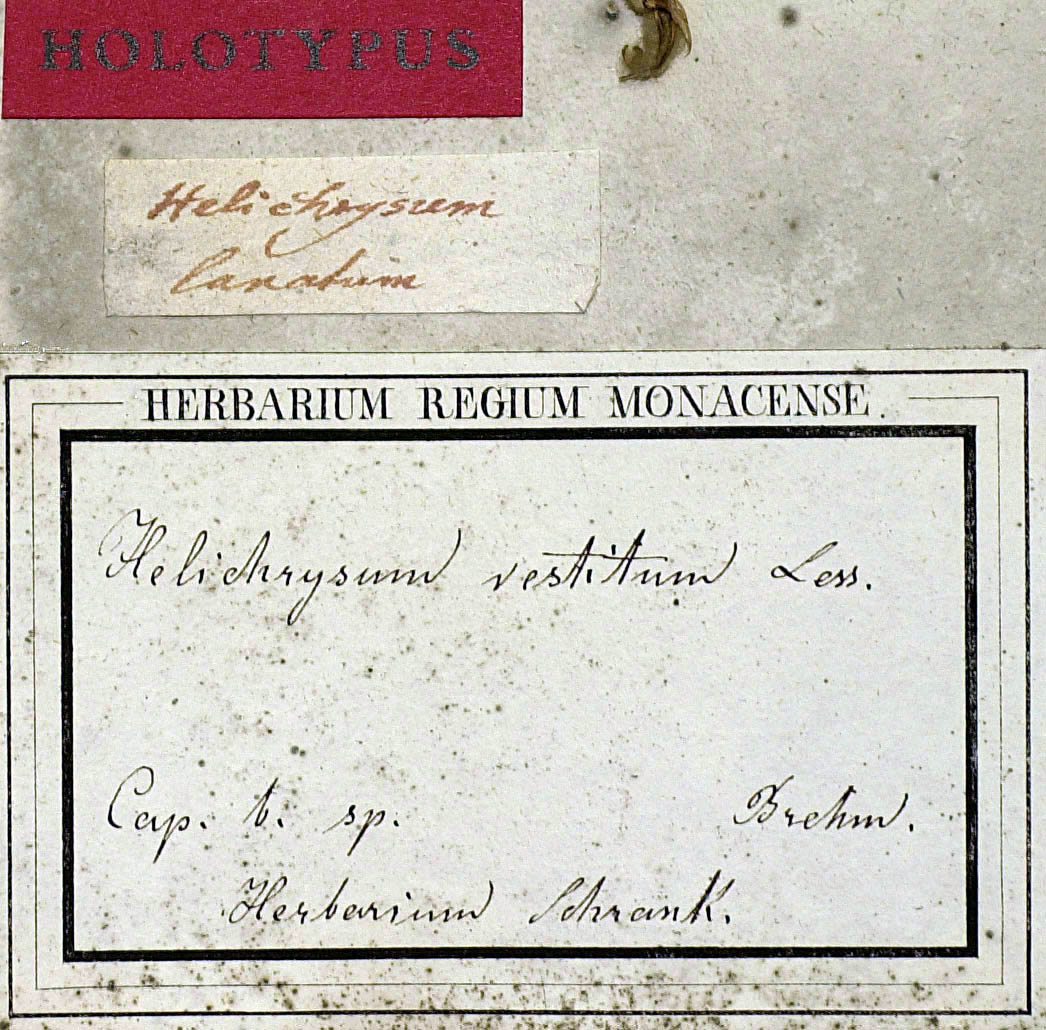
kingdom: Plantae
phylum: Tracheophyta
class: Magnoliopsida
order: Asterales
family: Asteraceae
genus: Syncarpha
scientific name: Syncarpha variegata
